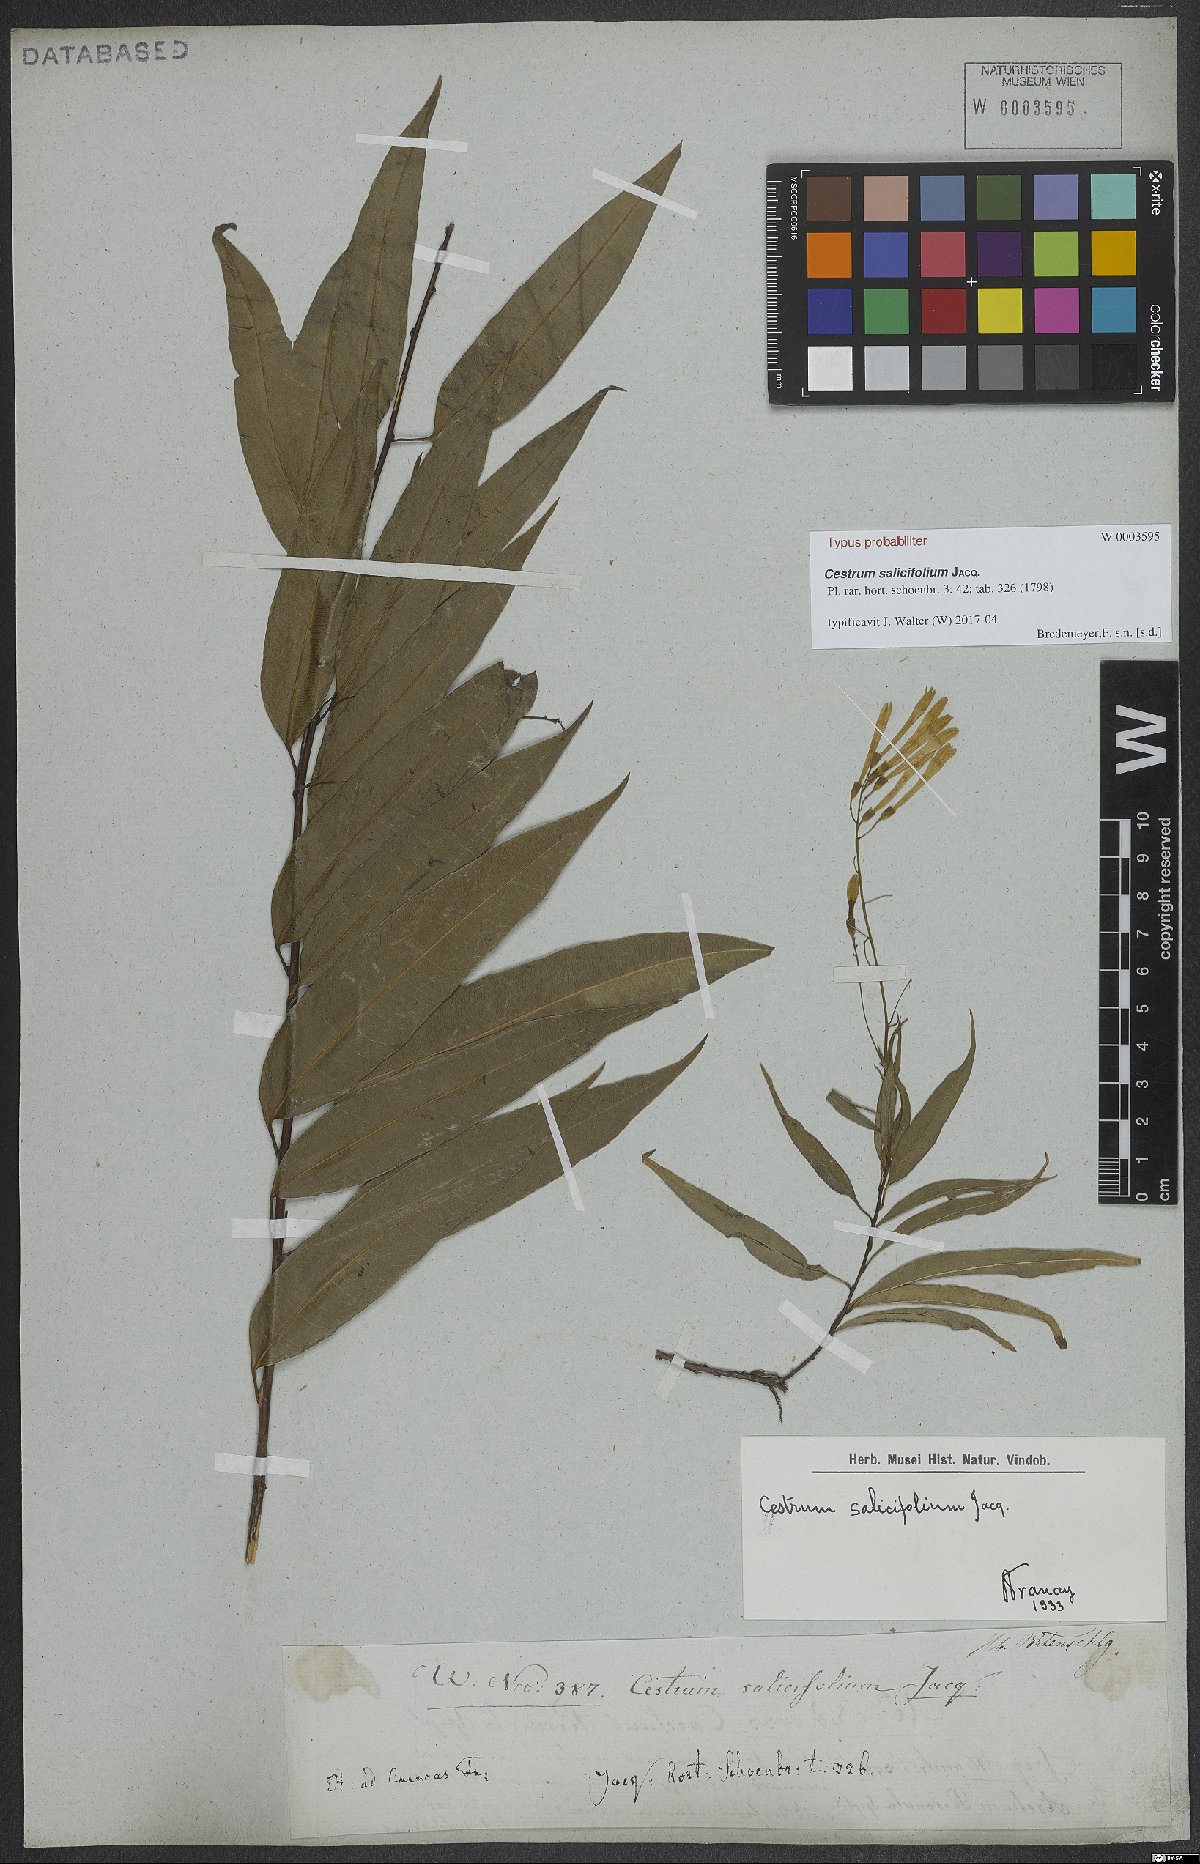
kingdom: Plantae
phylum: Tracheophyta
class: Magnoliopsida
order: Solanales
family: Solanaceae
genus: Cestrum
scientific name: Cestrum salicifolium
